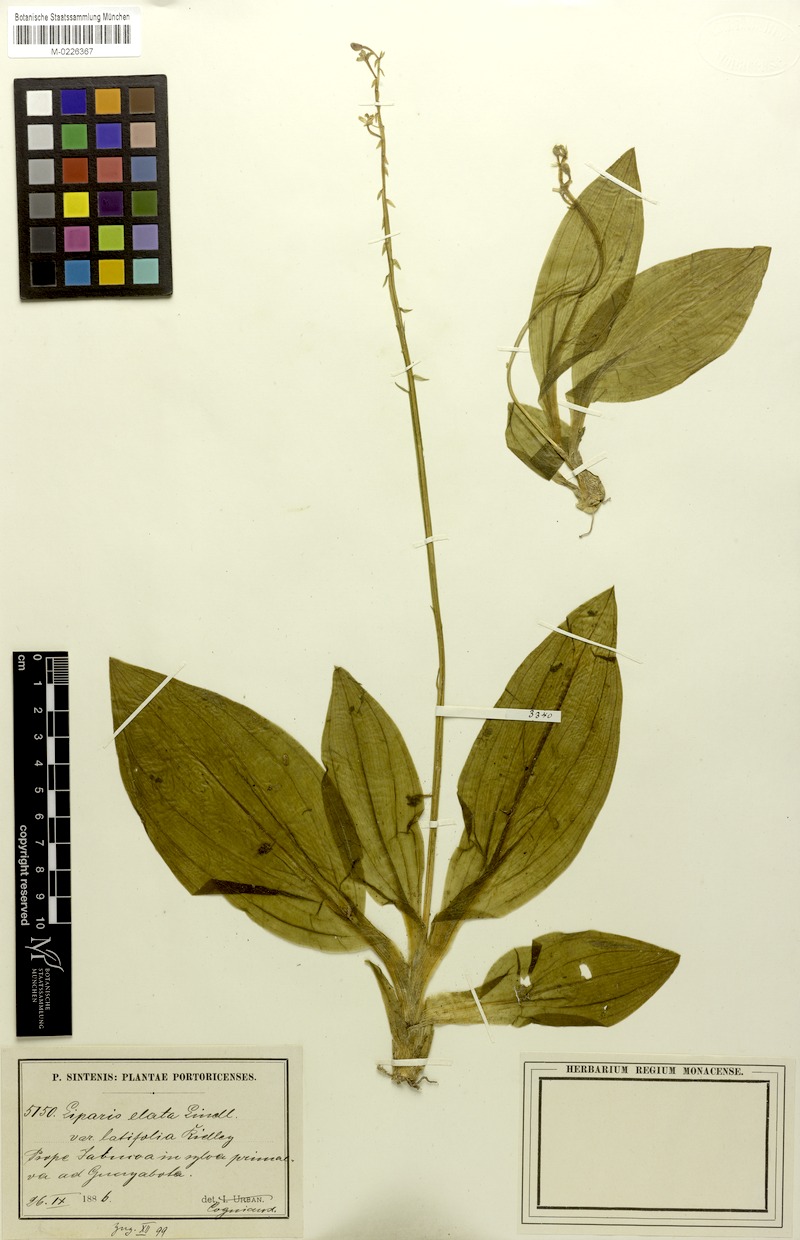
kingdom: Plantae
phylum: Tracheophyta
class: Liliopsida
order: Asparagales
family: Orchidaceae
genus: Liparis
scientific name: Liparis nervosa
